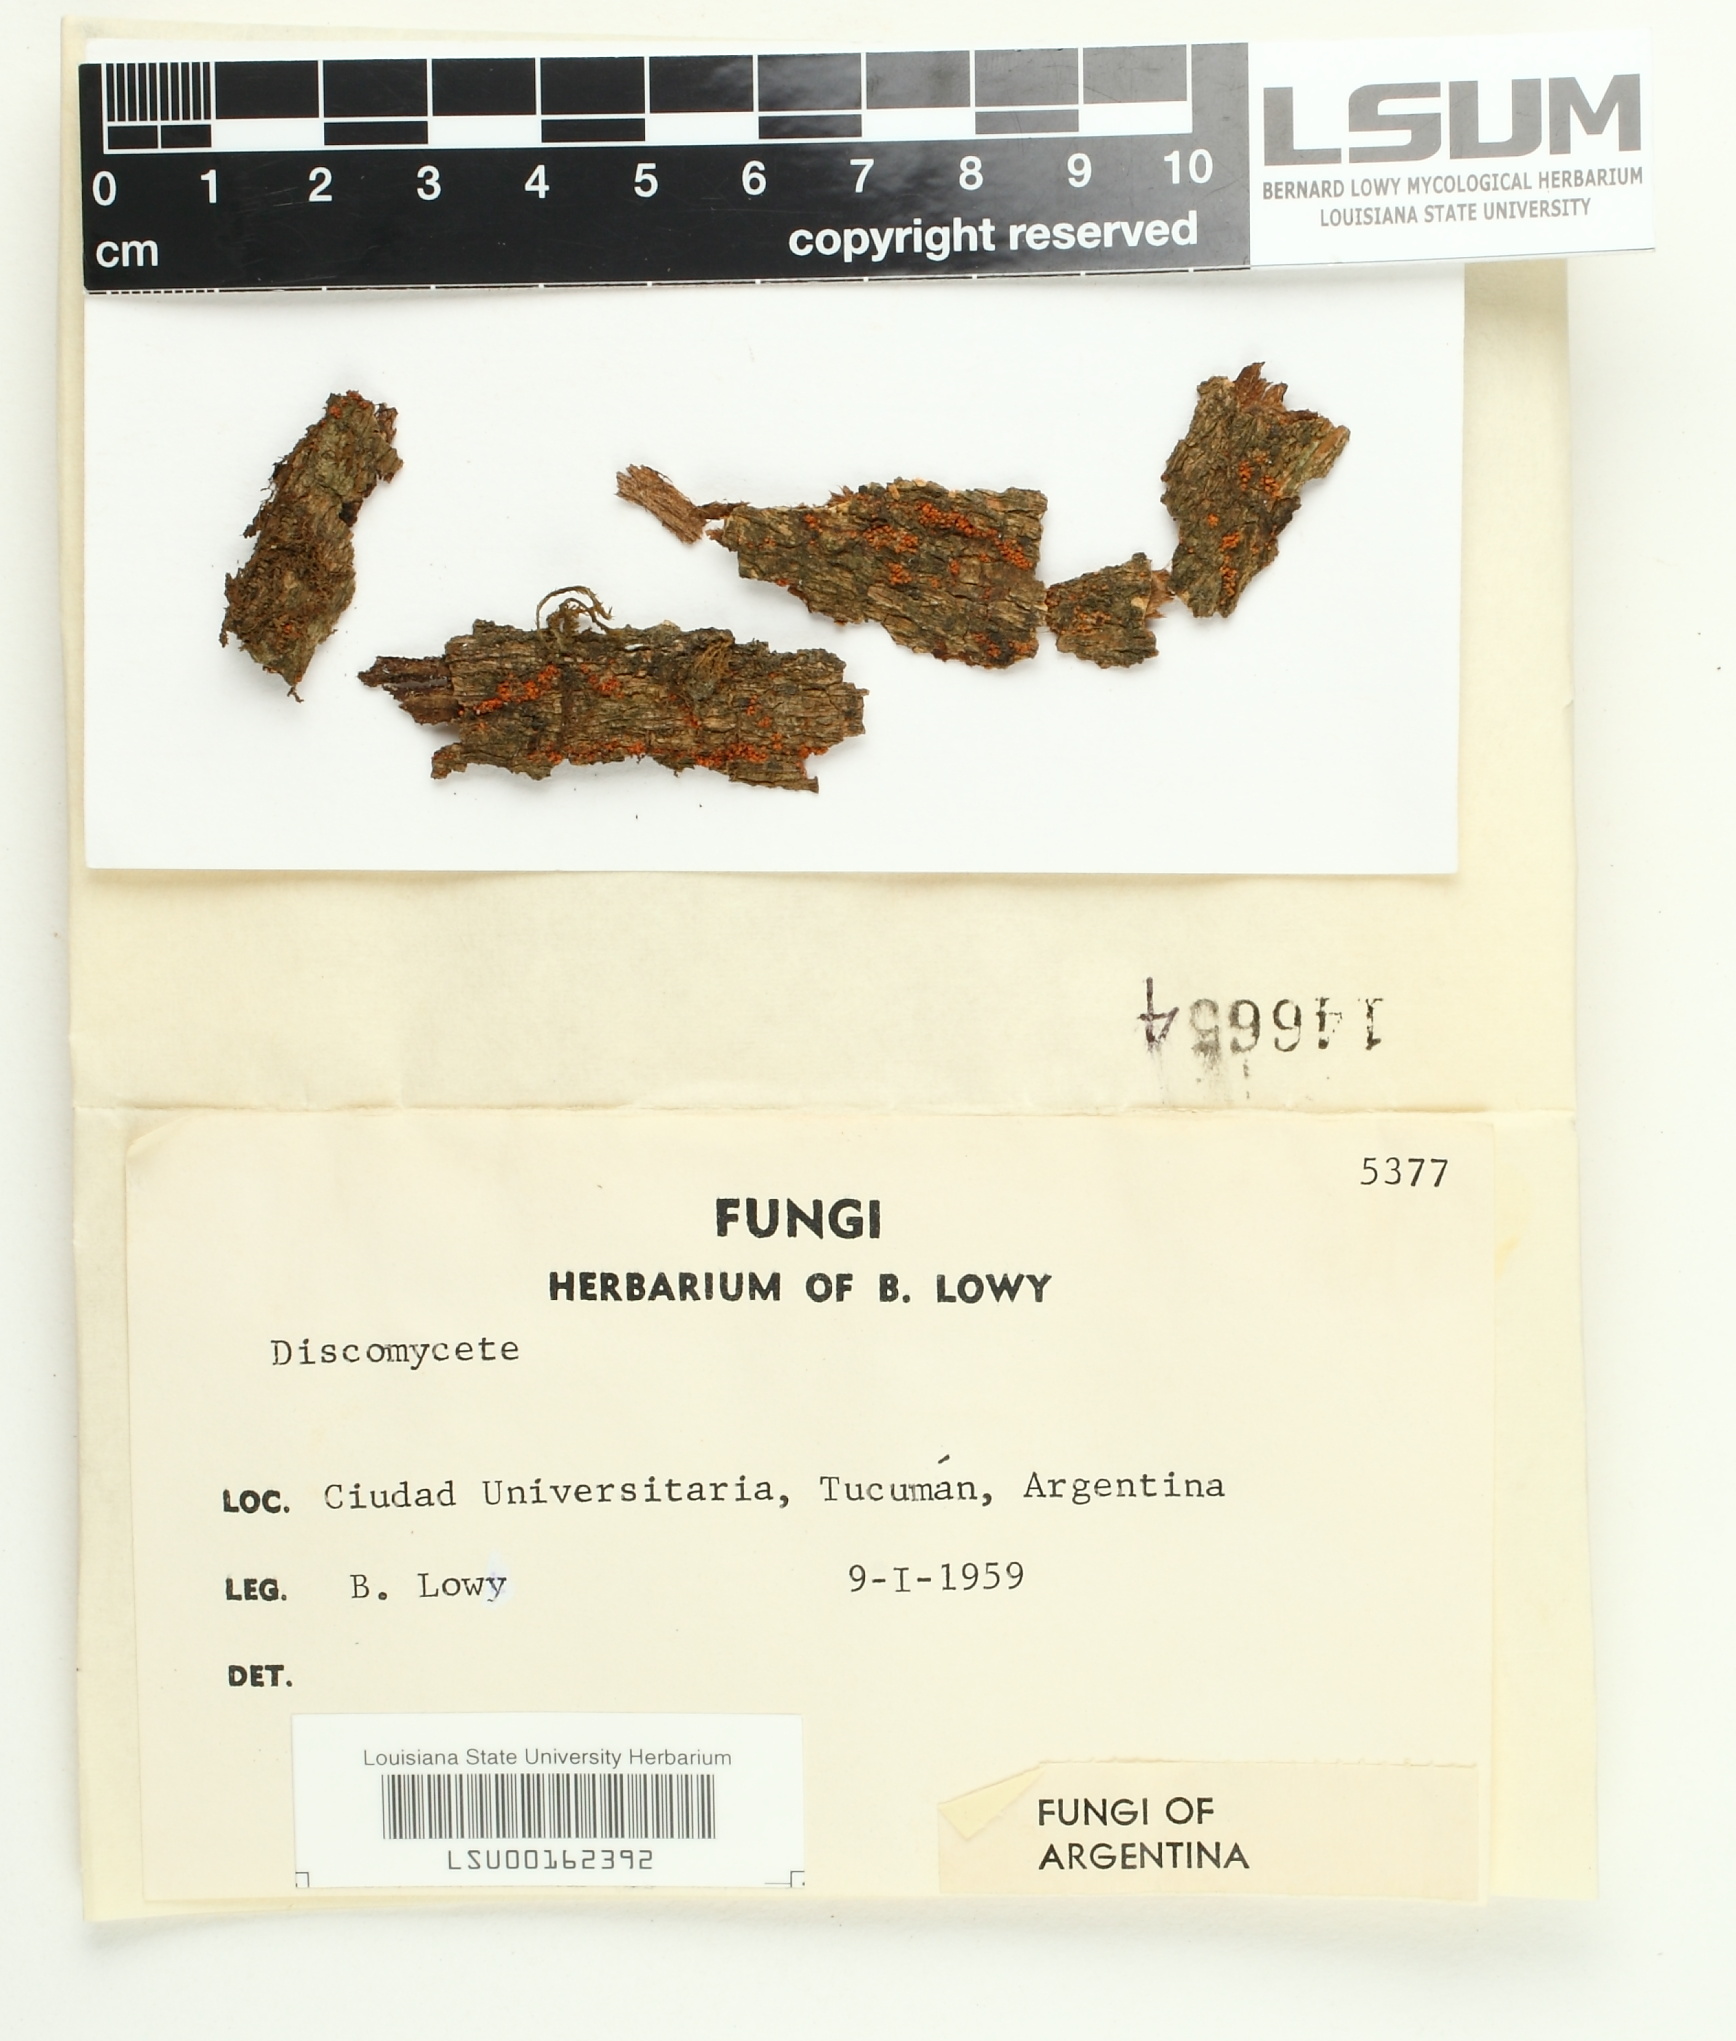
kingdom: Fungi
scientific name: Fungi
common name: Fungi
